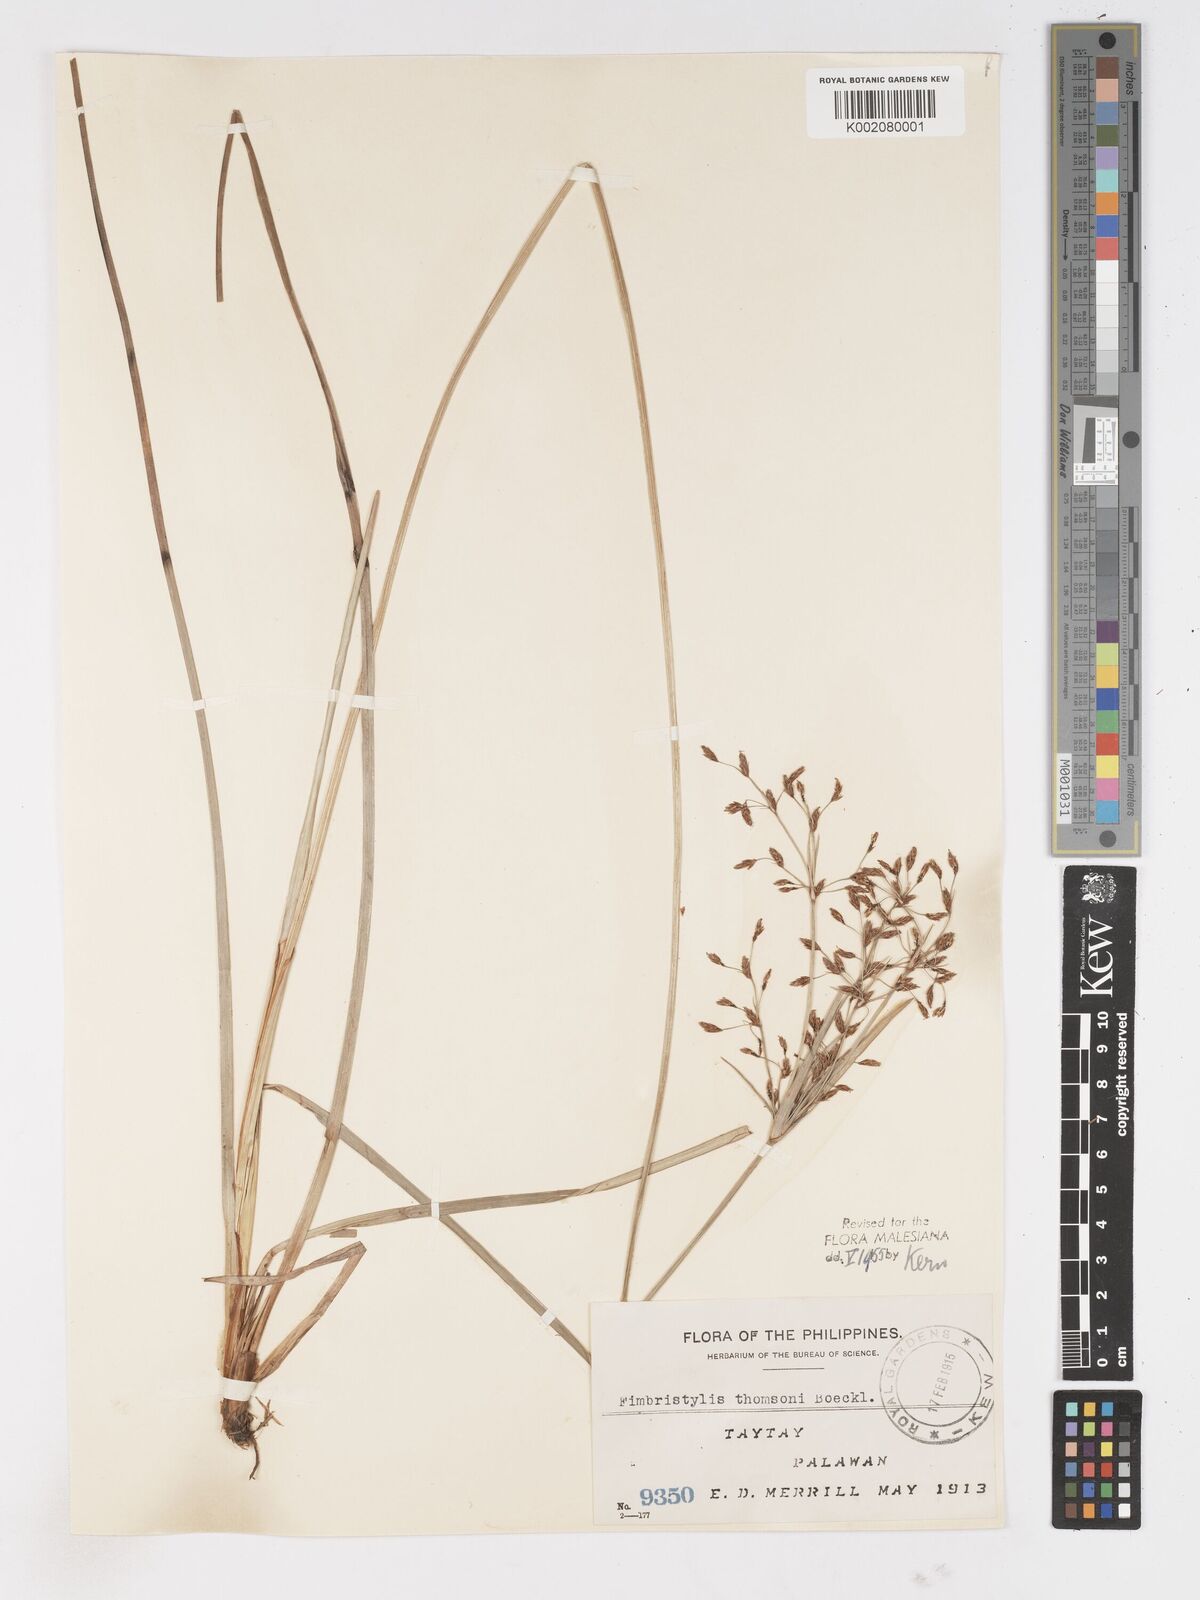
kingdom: Plantae
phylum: Tracheophyta
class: Liliopsida
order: Poales
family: Cyperaceae
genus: Fimbristylis
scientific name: Fimbristylis thomsonii
